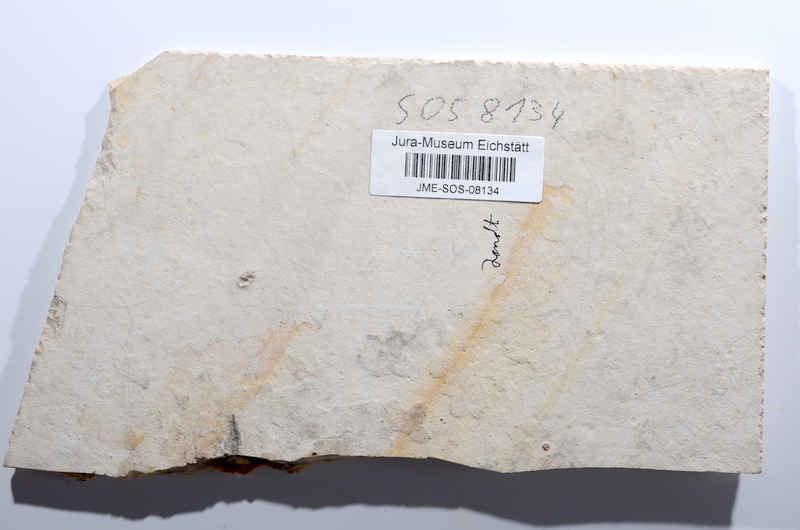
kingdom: Animalia
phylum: Chordata
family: Ascalaboidae
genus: Tharsis
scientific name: Tharsis dubius
